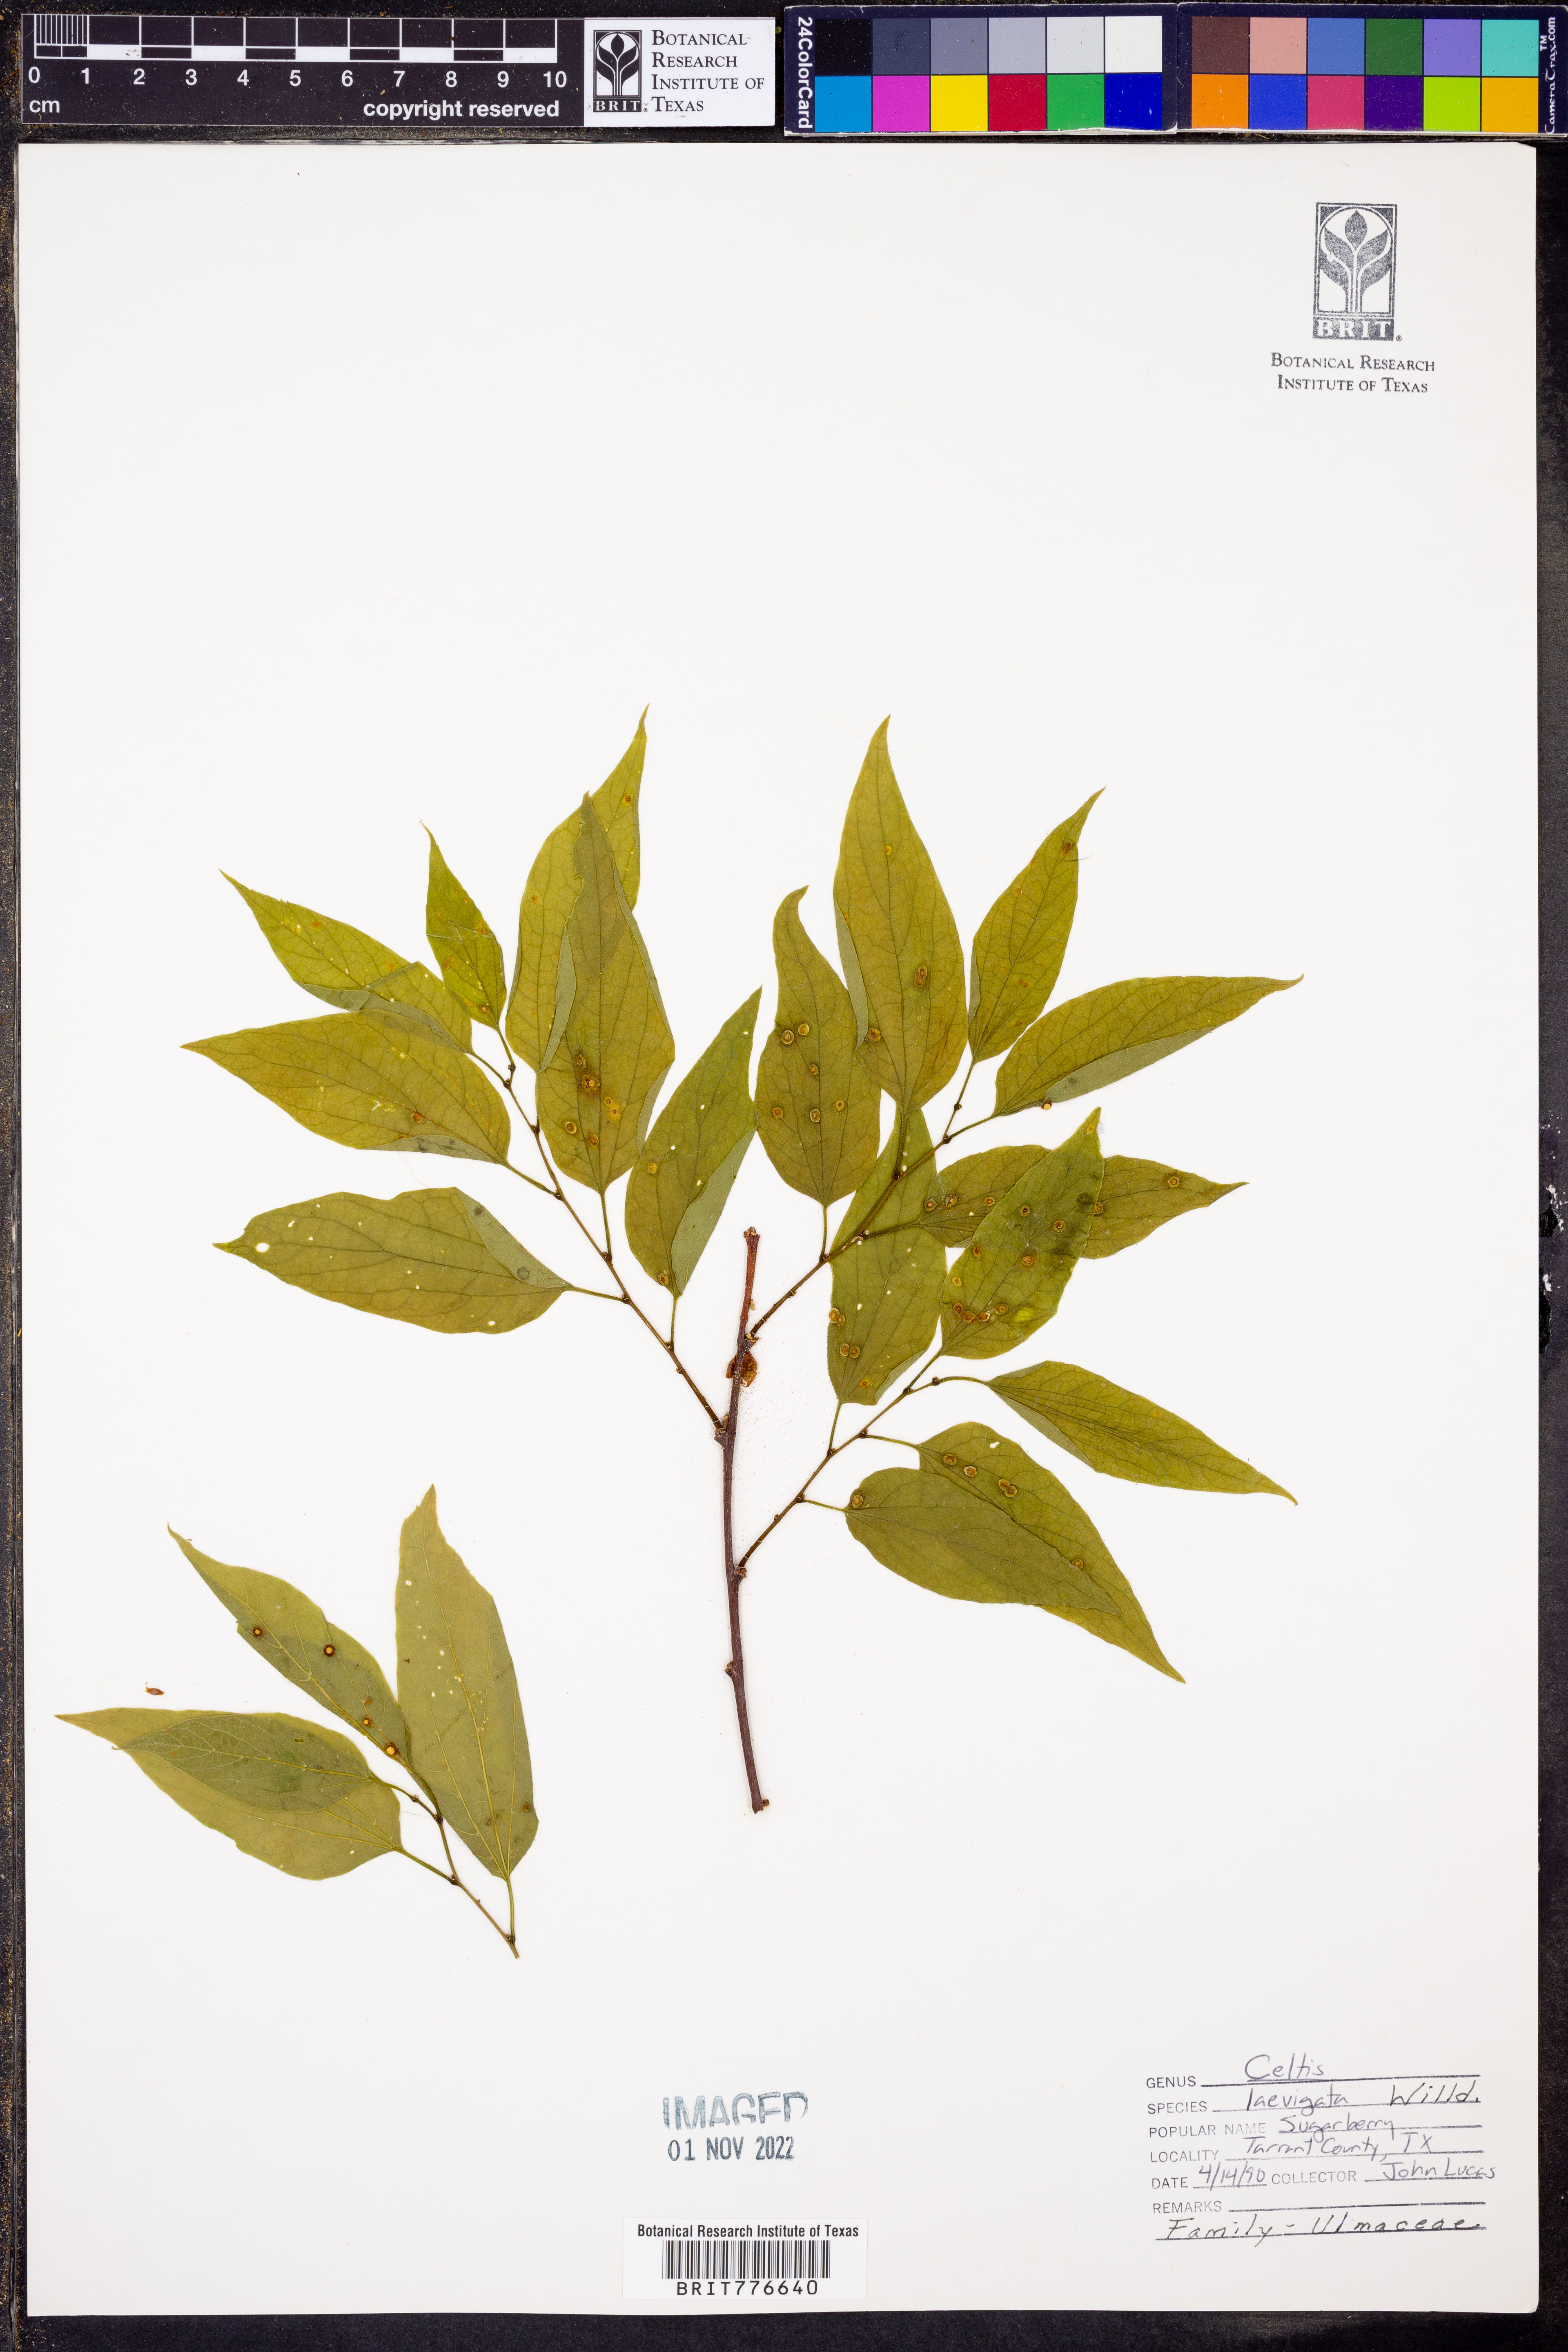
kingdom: Plantae
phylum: Tracheophyta
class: Magnoliopsida
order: Rosales
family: Cannabaceae
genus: Celtis
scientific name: Celtis laevigata
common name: Sugarberry
